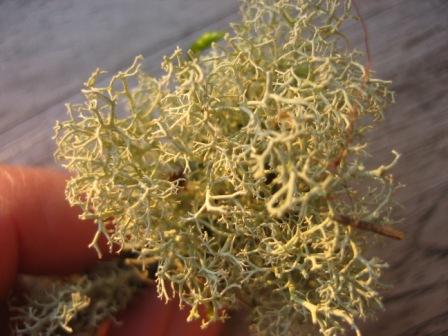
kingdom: Fungi
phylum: Ascomycota
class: Lecanoromycetes
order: Lecanorales
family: Cladoniaceae
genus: Cladonia
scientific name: Cladonia portentosa
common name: hede-rensdyrlav
